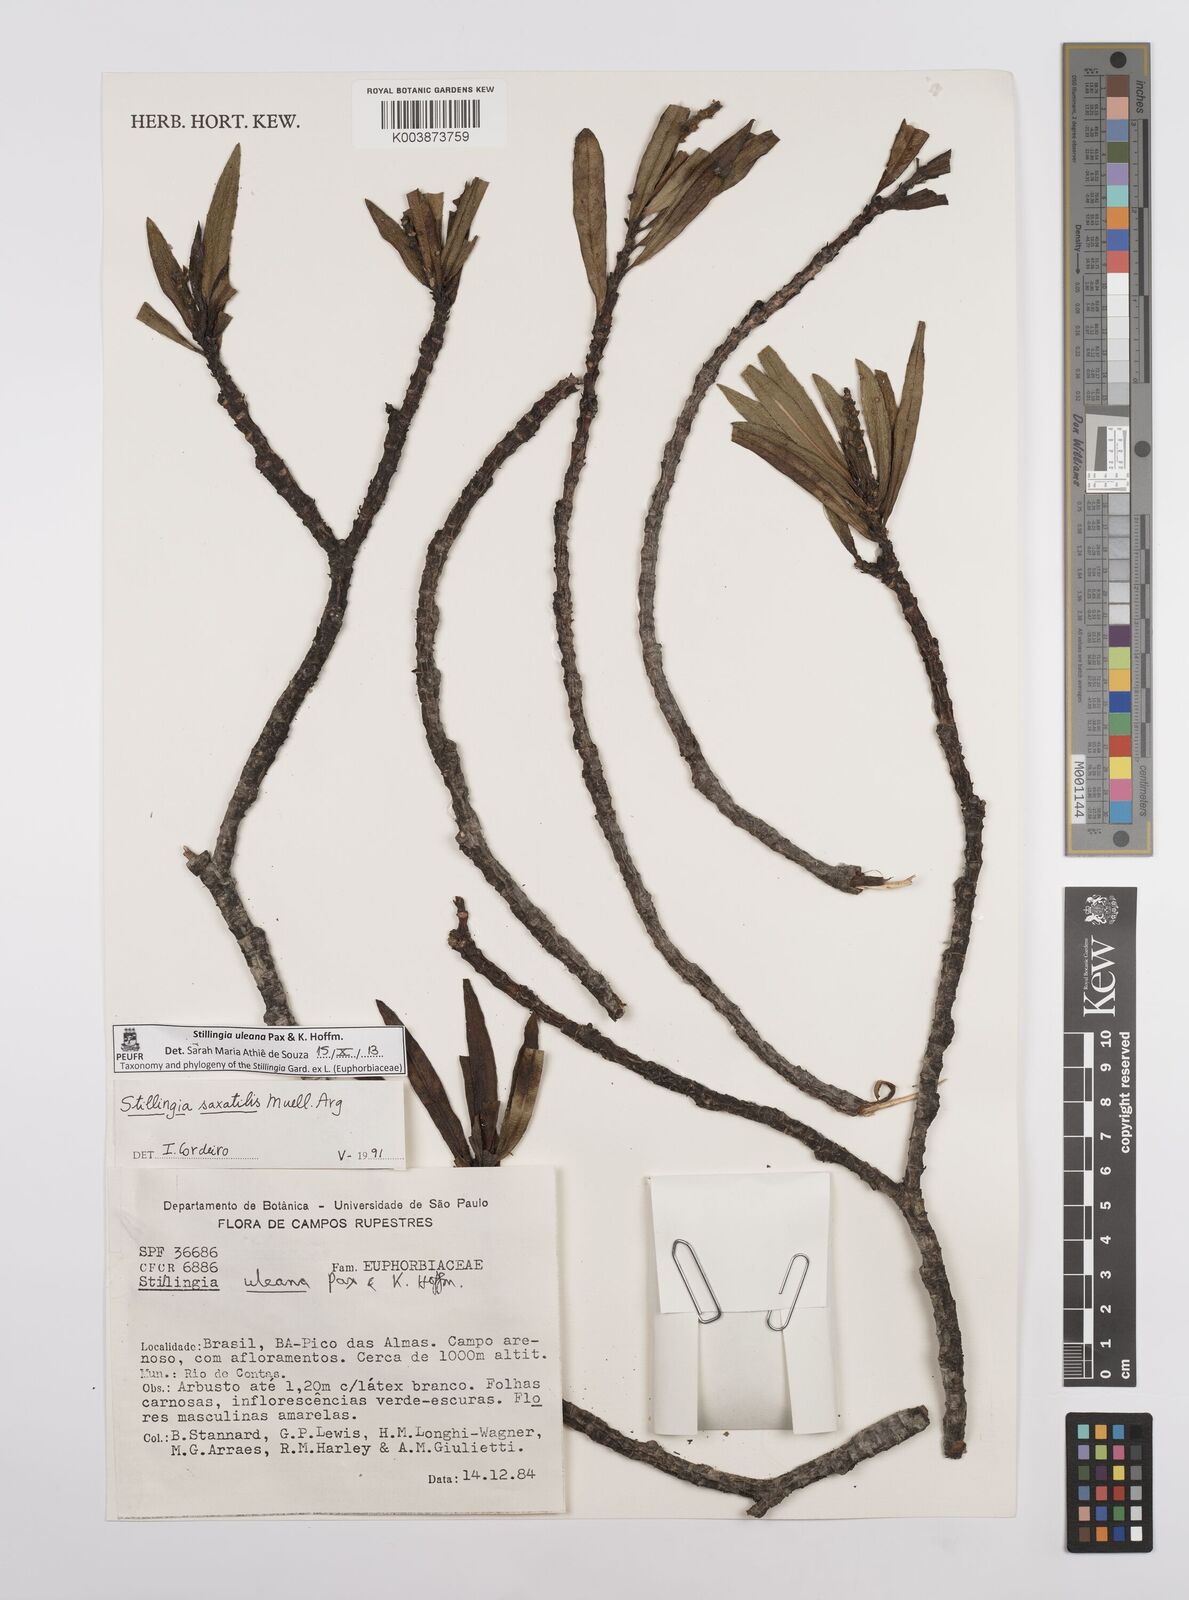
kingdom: Plantae
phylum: Tracheophyta
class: Magnoliopsida
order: Malpighiales
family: Euphorbiaceae
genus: Stillingia
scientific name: Stillingia uleana
